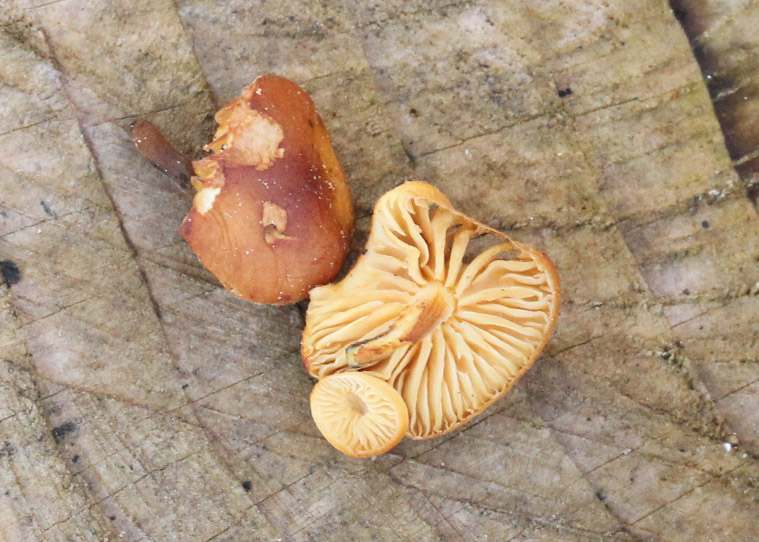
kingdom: Fungi
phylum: Basidiomycota
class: Agaricomycetes
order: Agaricales
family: Physalacriaceae
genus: Flammulina
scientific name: Flammulina elastica
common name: pile-fløjlsfod
